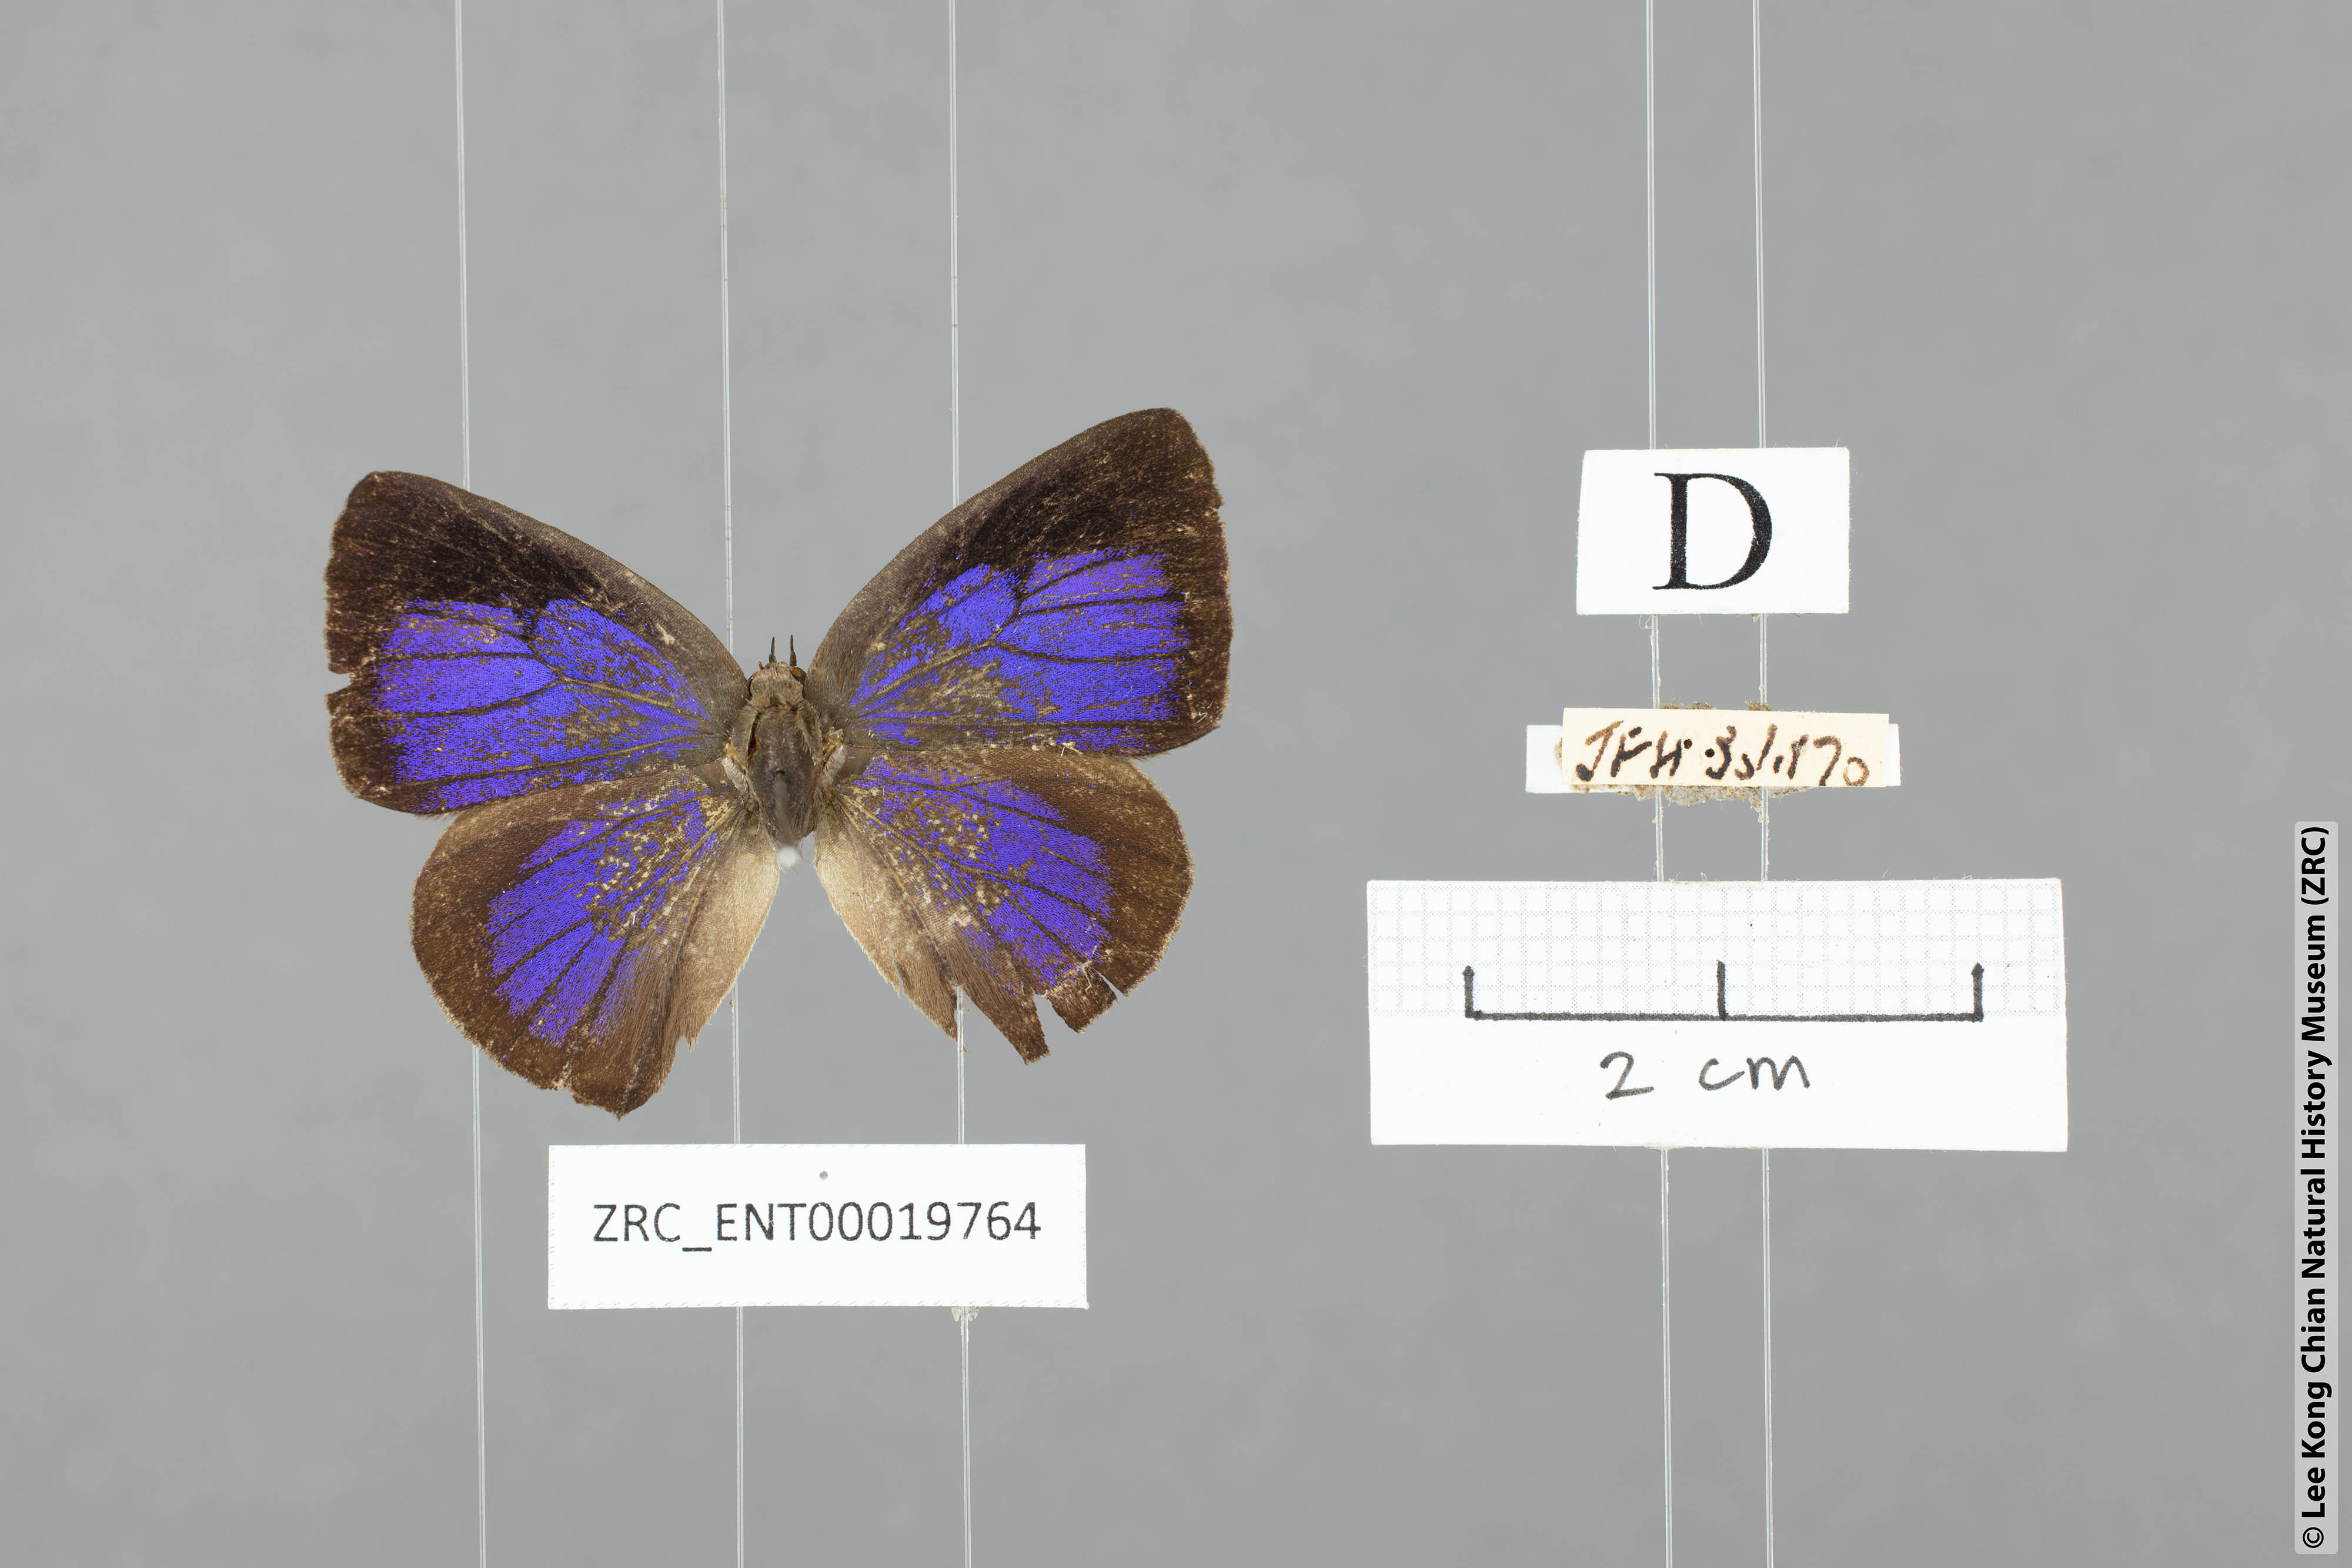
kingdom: Animalia
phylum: Arthropoda
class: Insecta
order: Lepidoptera
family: Lycaenidae
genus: Arhopala
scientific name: Arhopala
